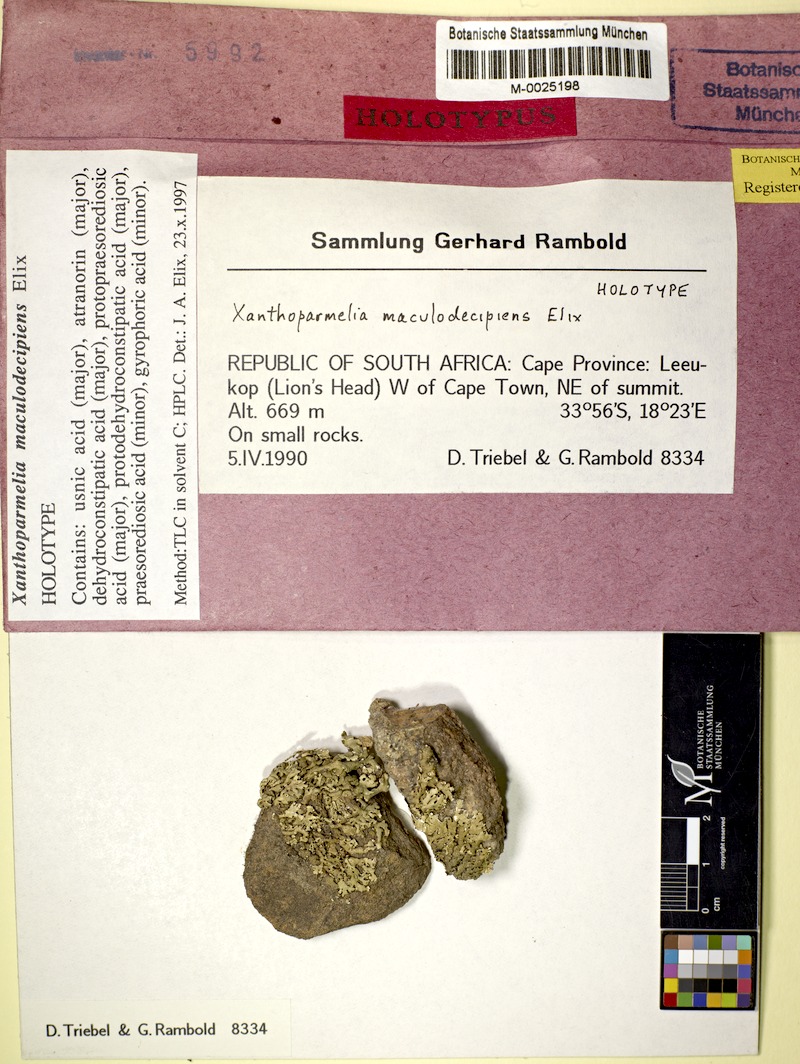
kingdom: Fungi
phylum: Ascomycota
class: Lecanoromycetes
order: Lecanorales
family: Parmeliaceae
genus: Xanthoparmelia
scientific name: Xanthoparmelia
